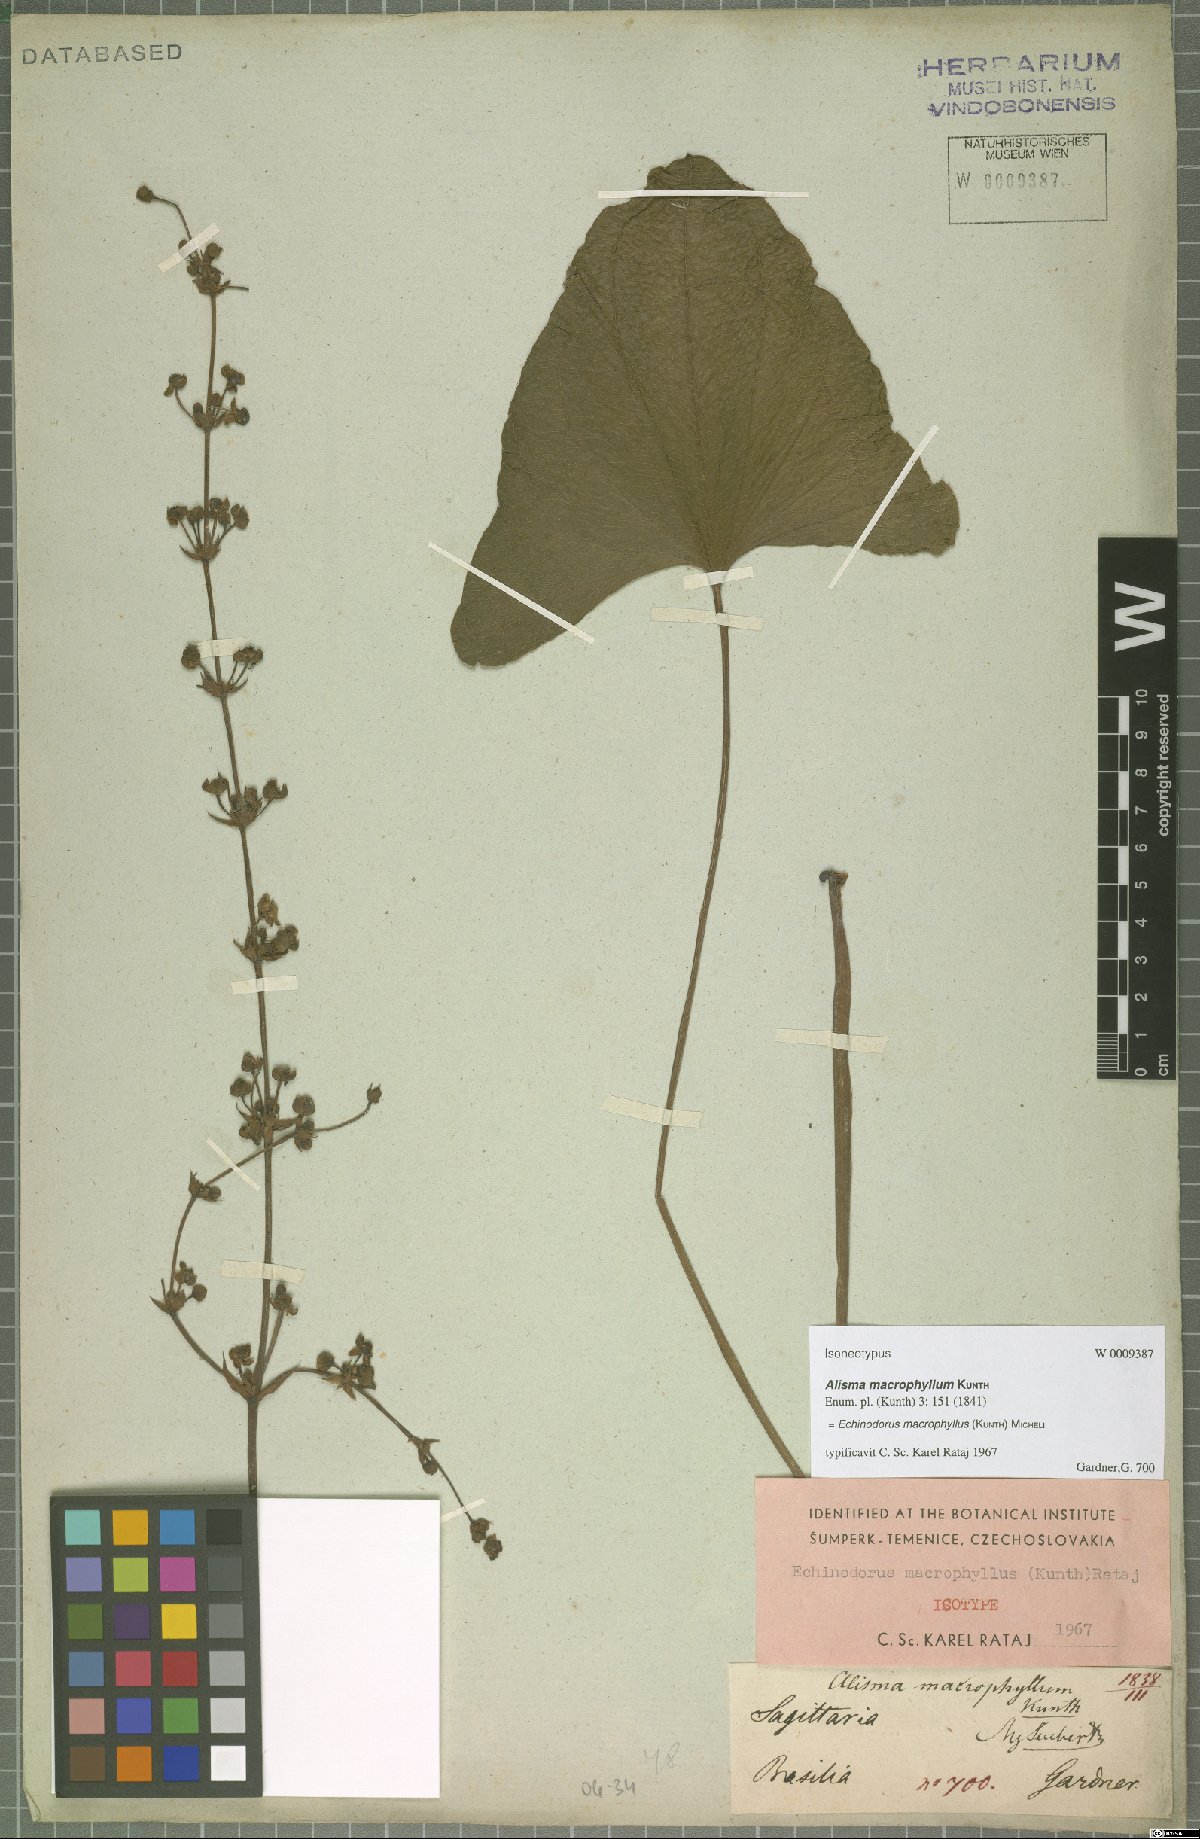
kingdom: Plantae
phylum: Tracheophyta
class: Liliopsida
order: Alismatales
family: Alismataceae
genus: Aquarius
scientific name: Aquarius macrophyllus
